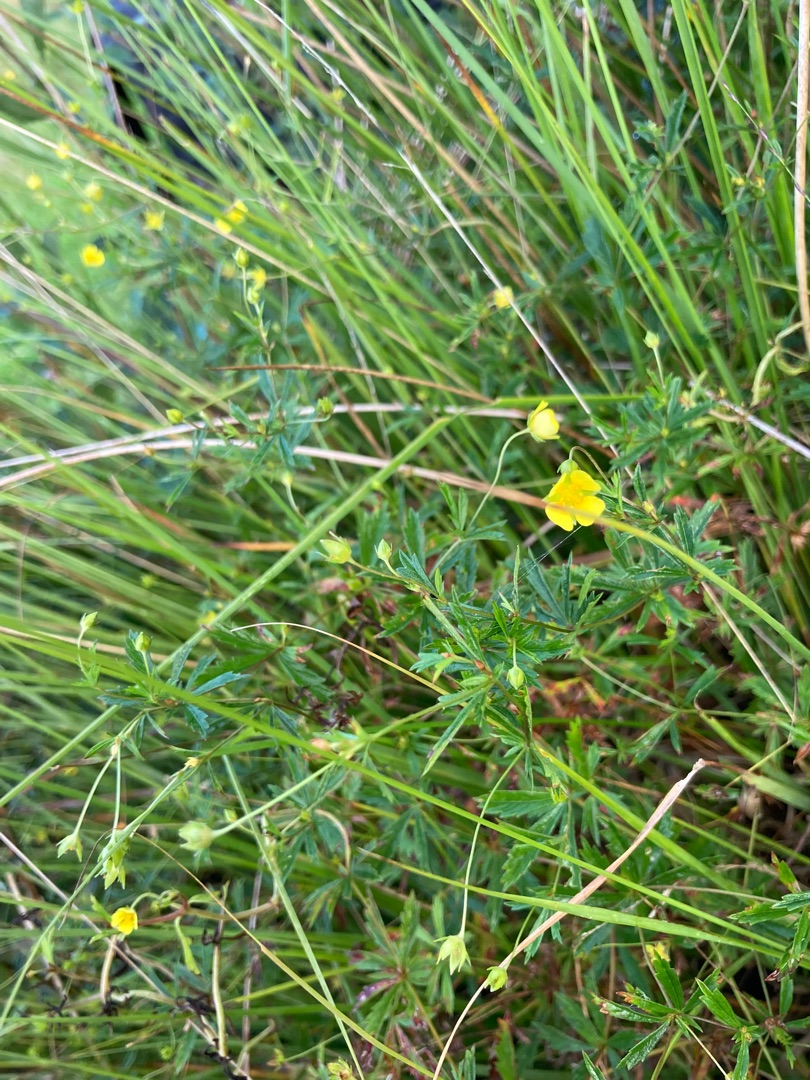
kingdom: Plantae
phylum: Tracheophyta
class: Magnoliopsida
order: Rosales
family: Rosaceae
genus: Potentilla
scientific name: Potentilla erecta
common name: Tormentil
